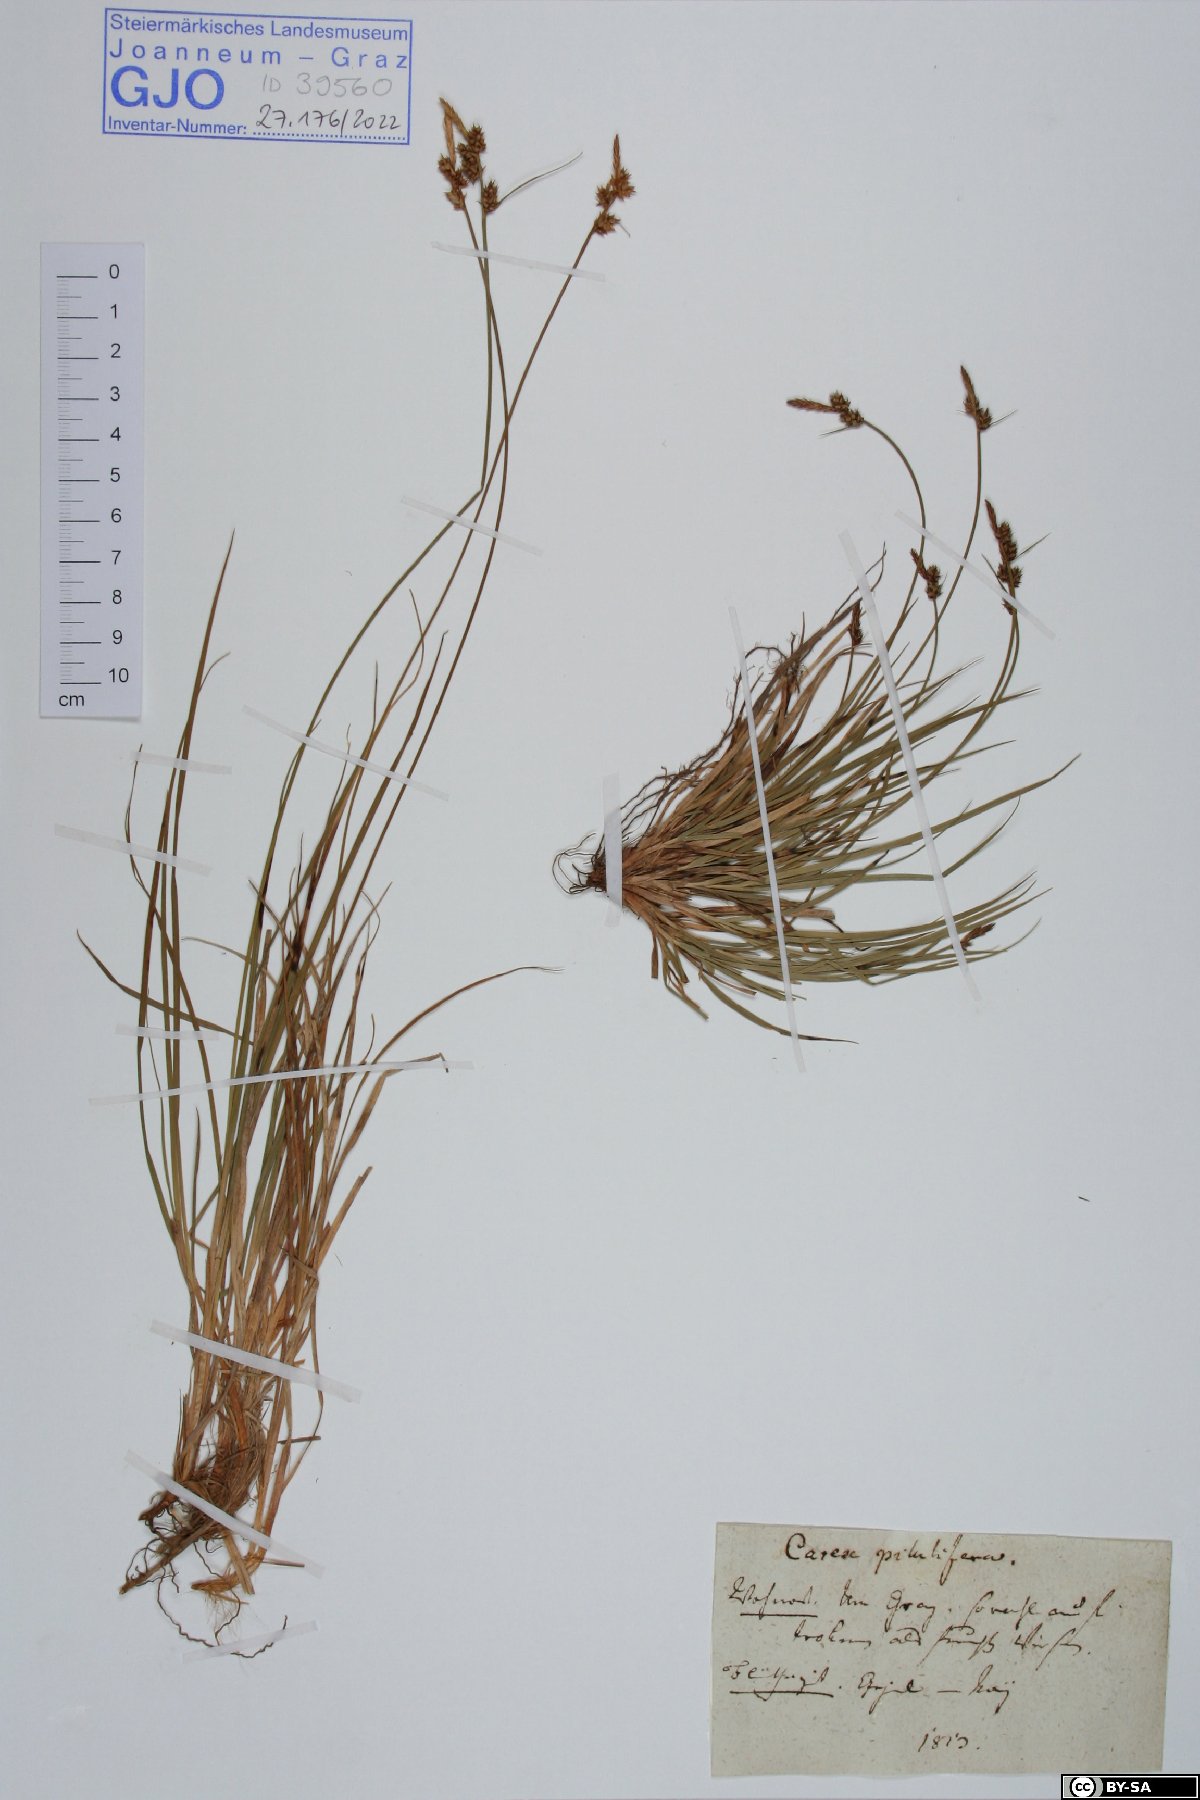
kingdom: Plantae
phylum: Tracheophyta
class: Liliopsida
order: Poales
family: Cyperaceae
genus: Carex
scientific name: Carex pilulifera
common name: Pill sedge
